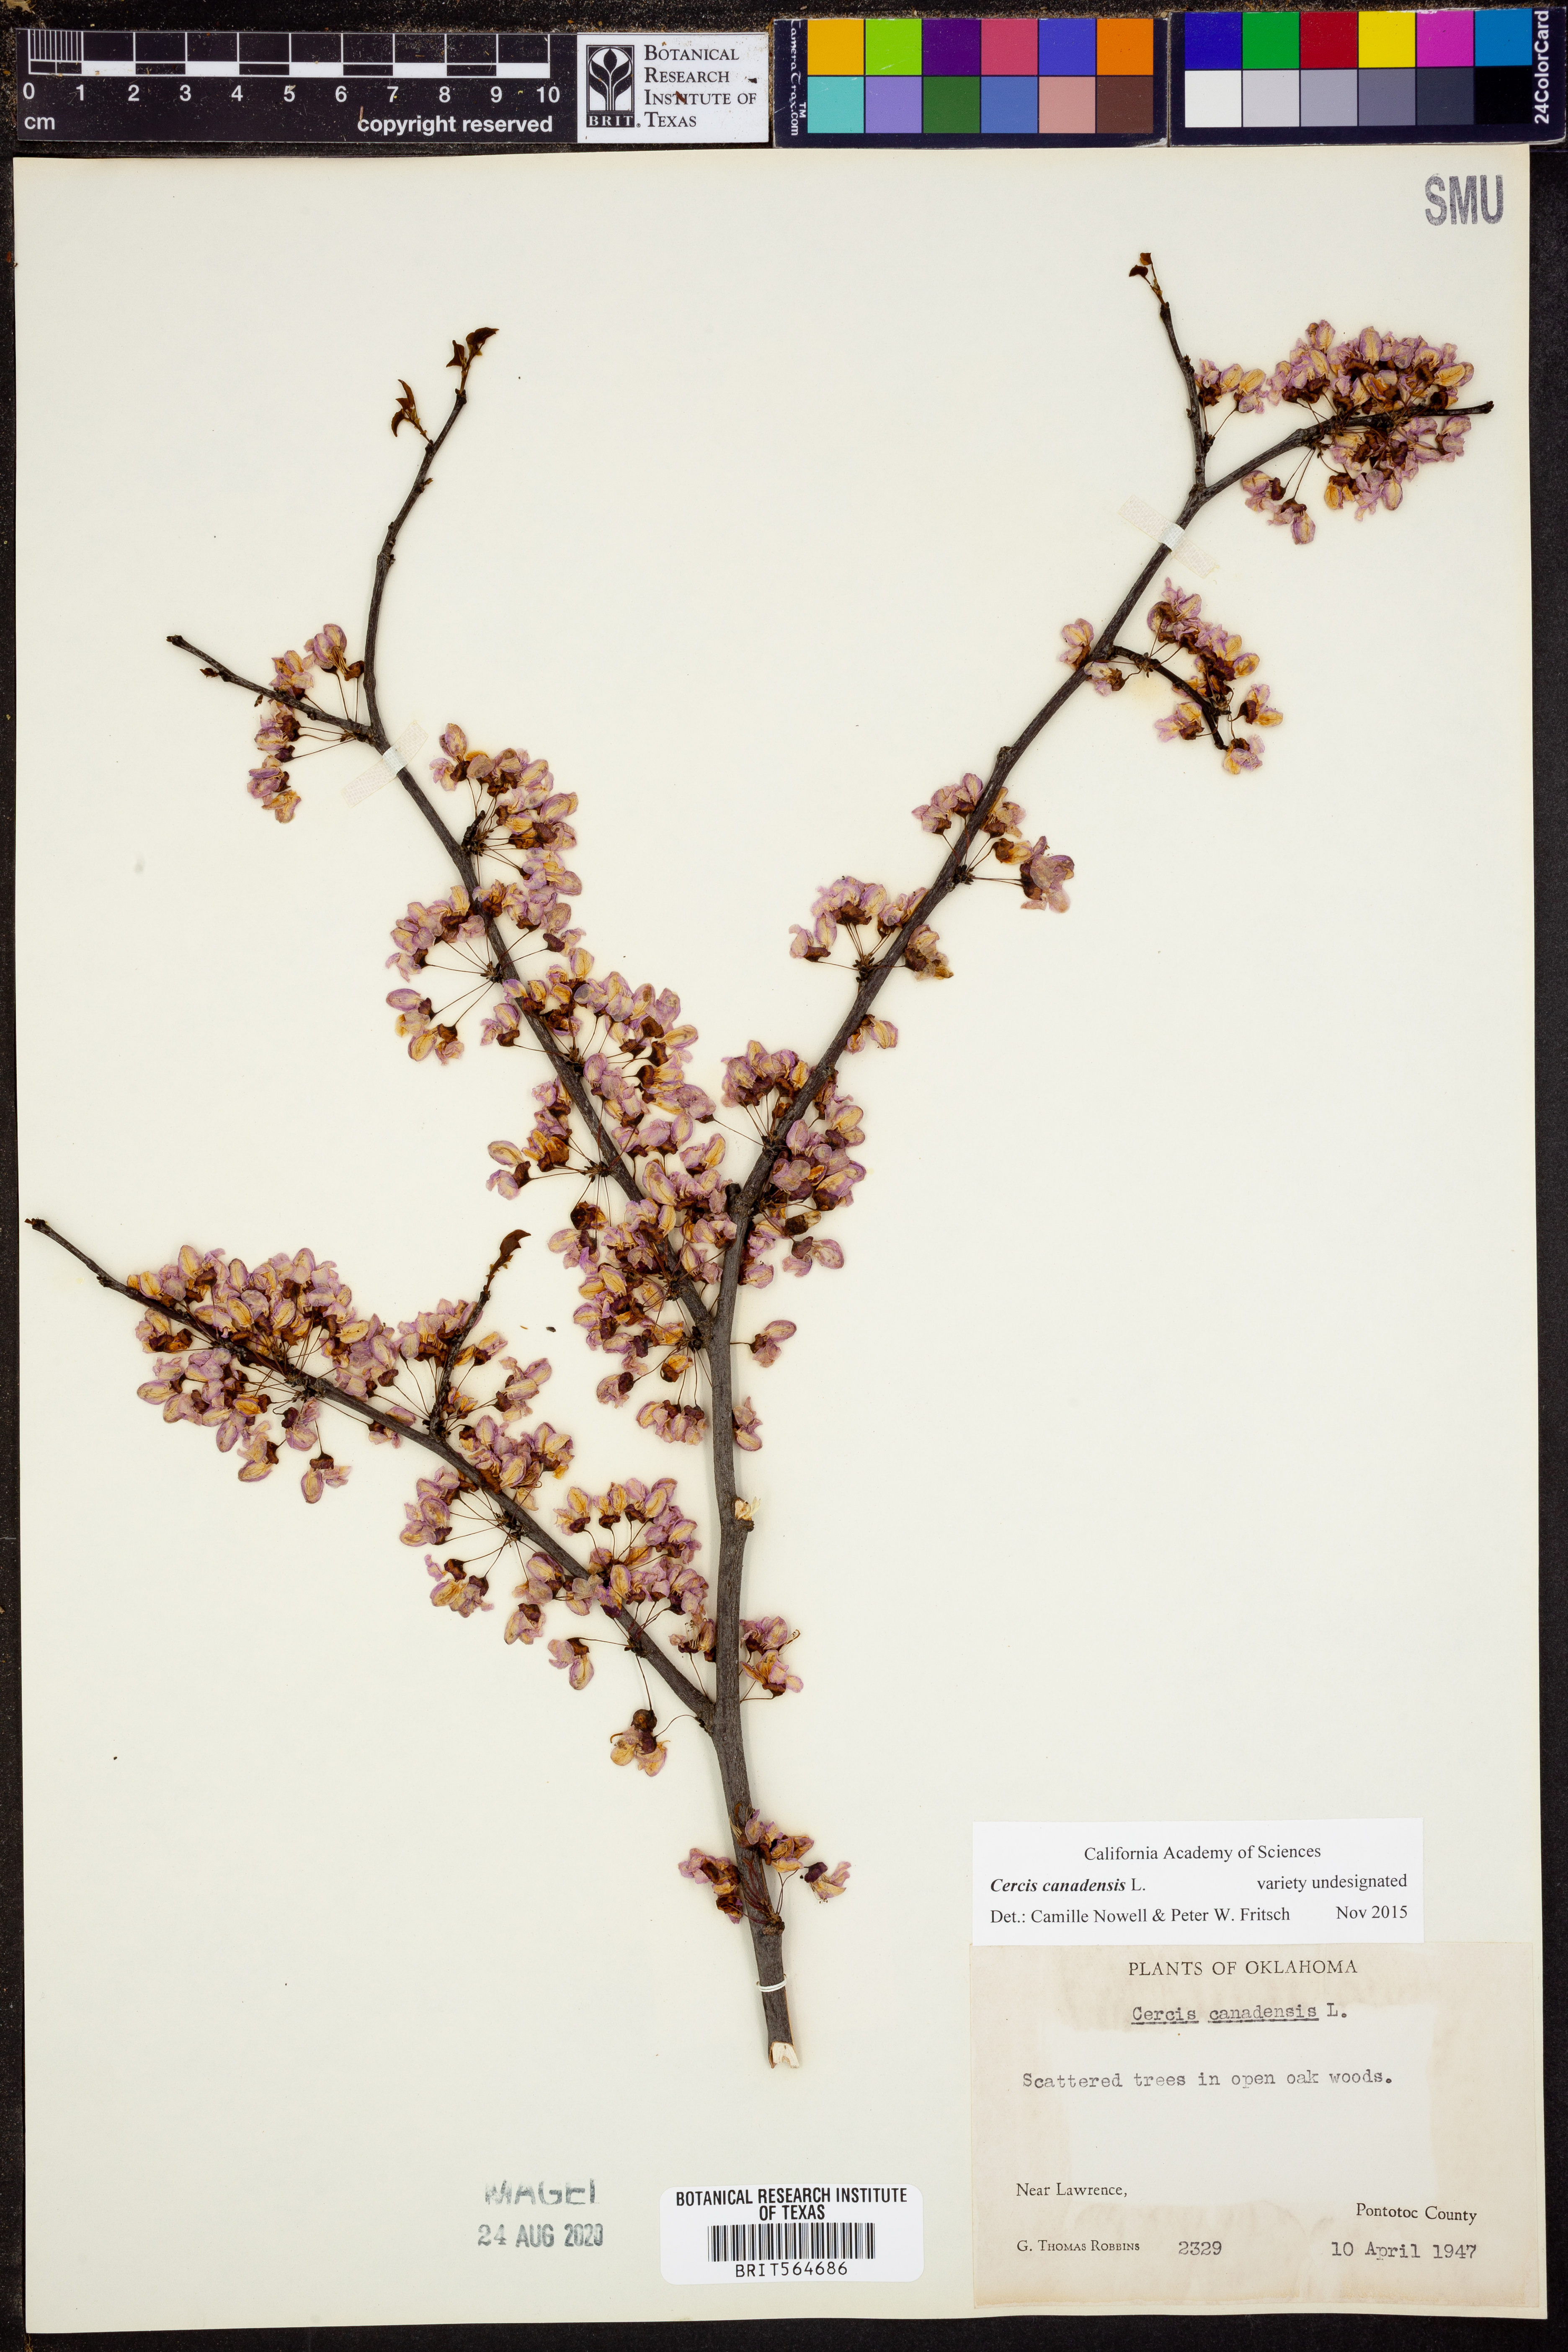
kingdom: Plantae
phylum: Tracheophyta
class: Magnoliopsida
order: Fabales
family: Fabaceae
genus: Cercis
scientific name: Cercis canadensis
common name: Eastern redbud
